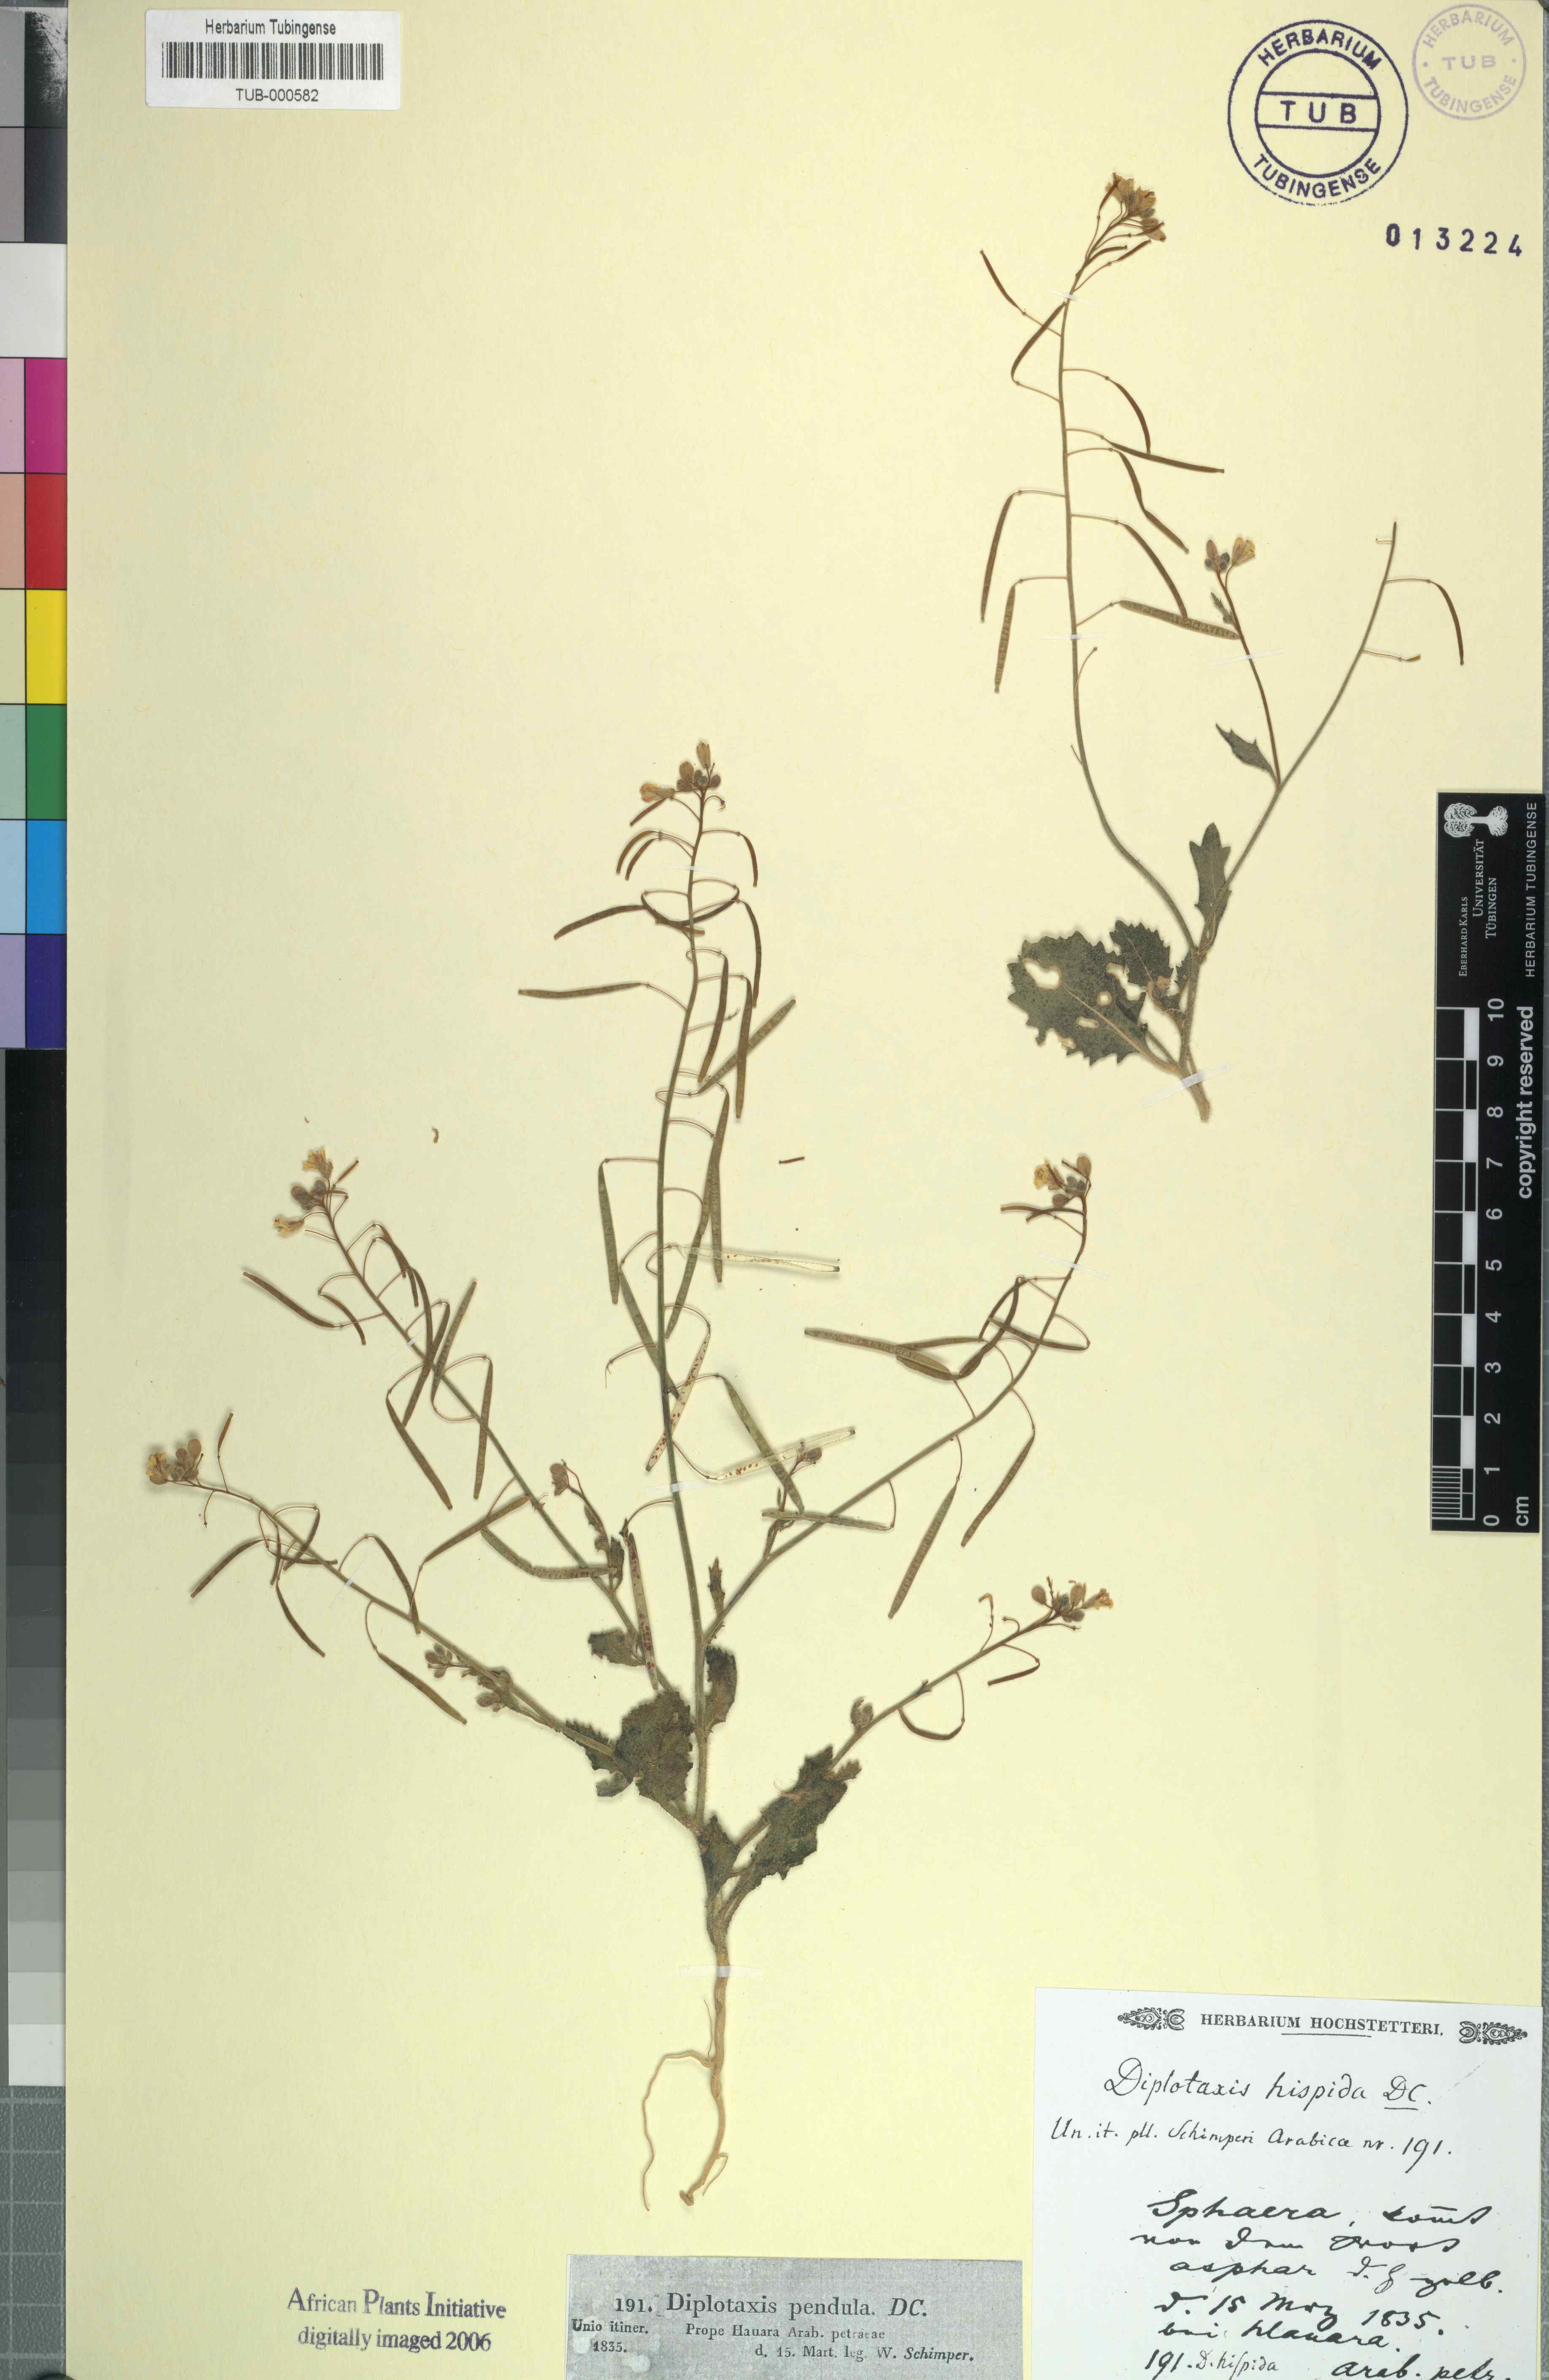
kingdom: Plantae
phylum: Tracheophyta
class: Magnoliopsida
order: Brassicales
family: Brassicaceae
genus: Diplotaxis
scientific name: Diplotaxis harra
